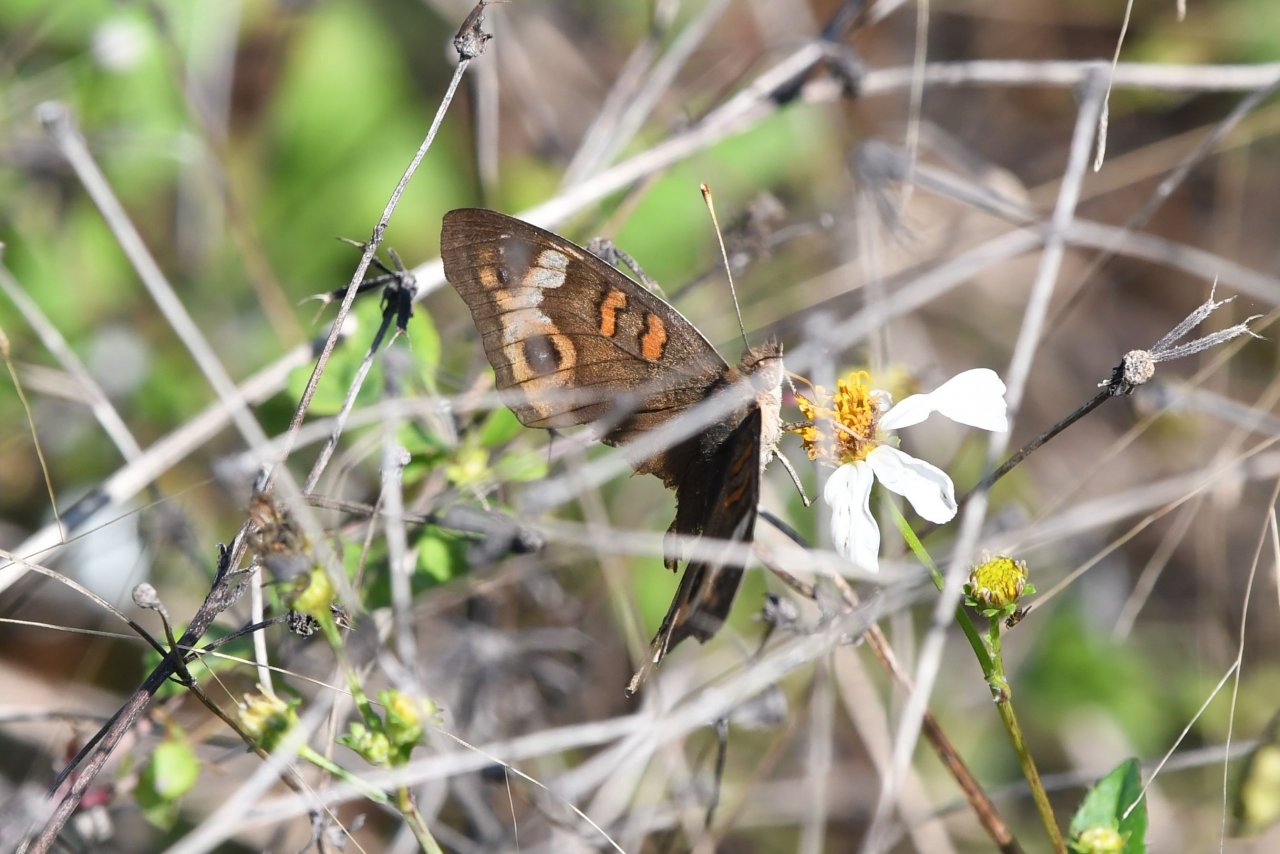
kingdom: Animalia
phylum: Arthropoda
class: Insecta
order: Lepidoptera
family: Nymphalidae
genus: Junonia
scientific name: Junonia evarete
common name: Mangrove Buckeye
